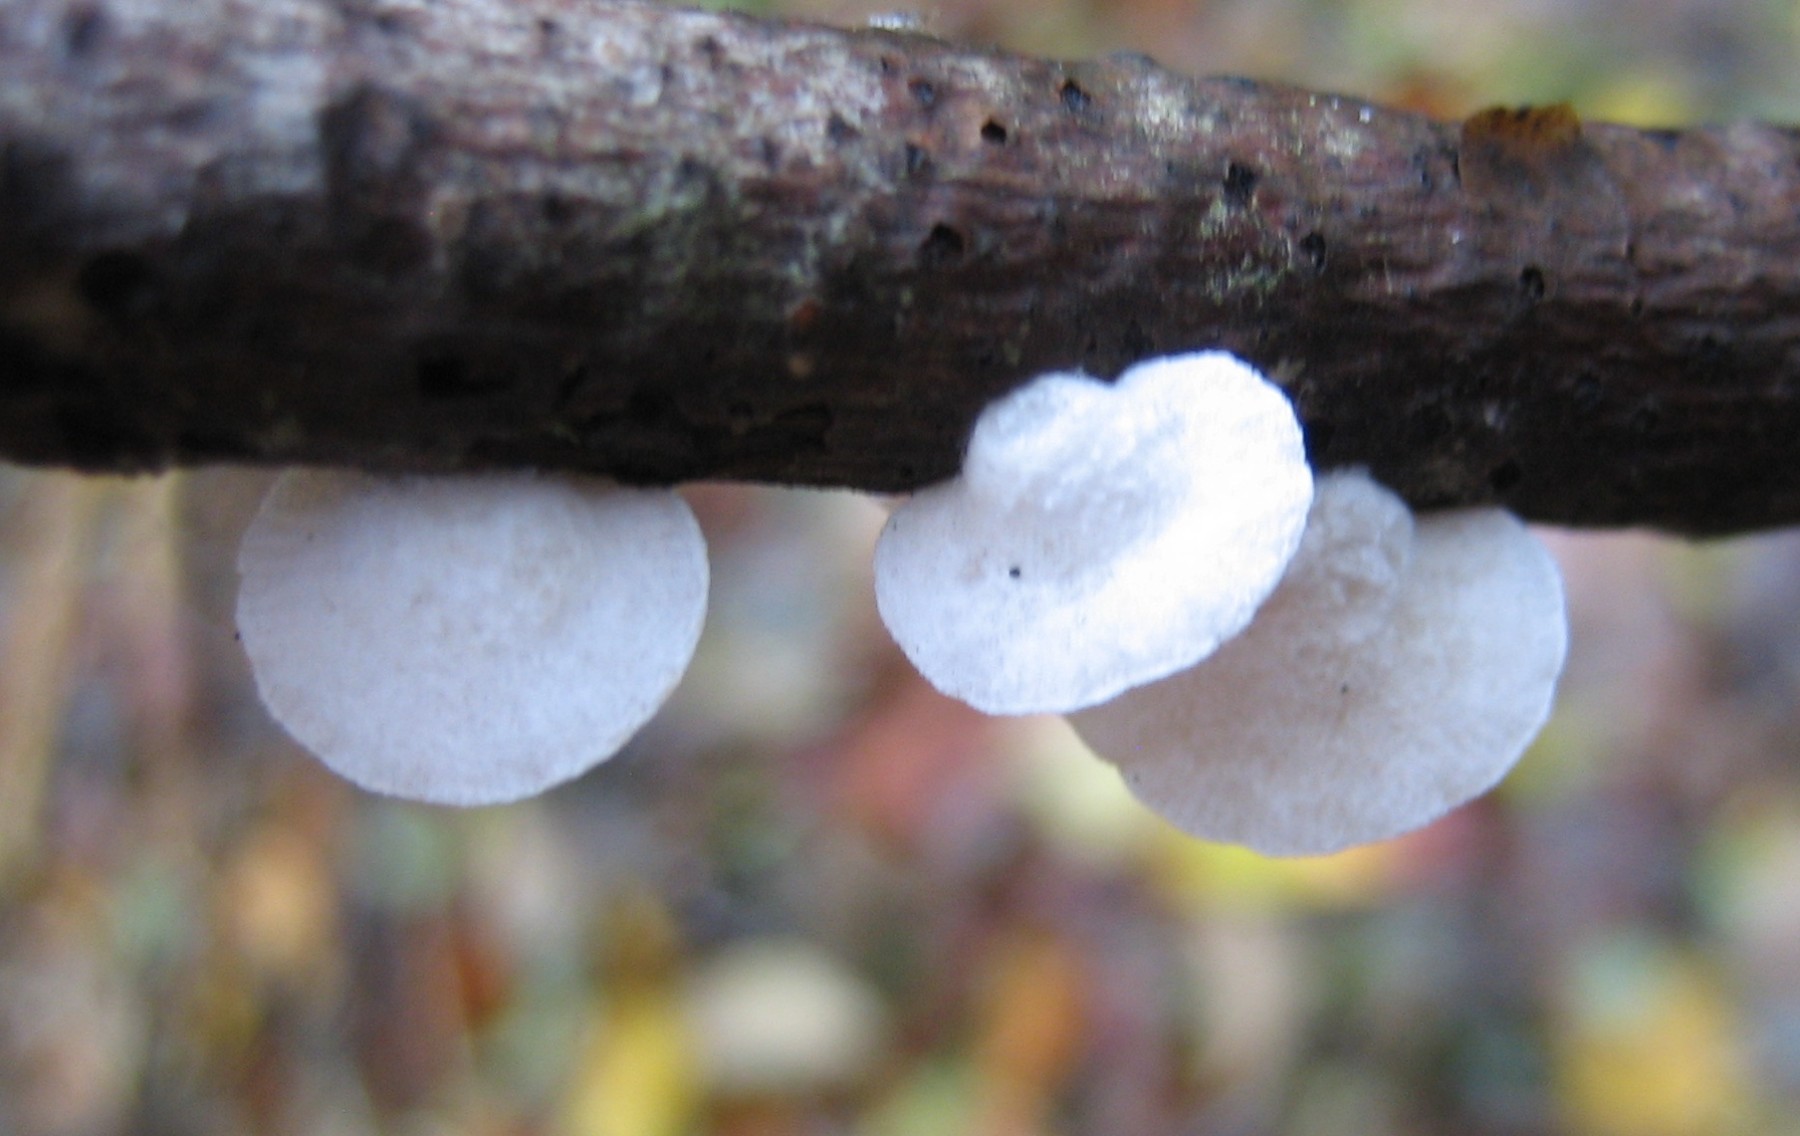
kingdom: Fungi
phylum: Basidiomycota
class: Agaricomycetes
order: Agaricales
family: Crepidotaceae
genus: Crepidotus
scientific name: Crepidotus
